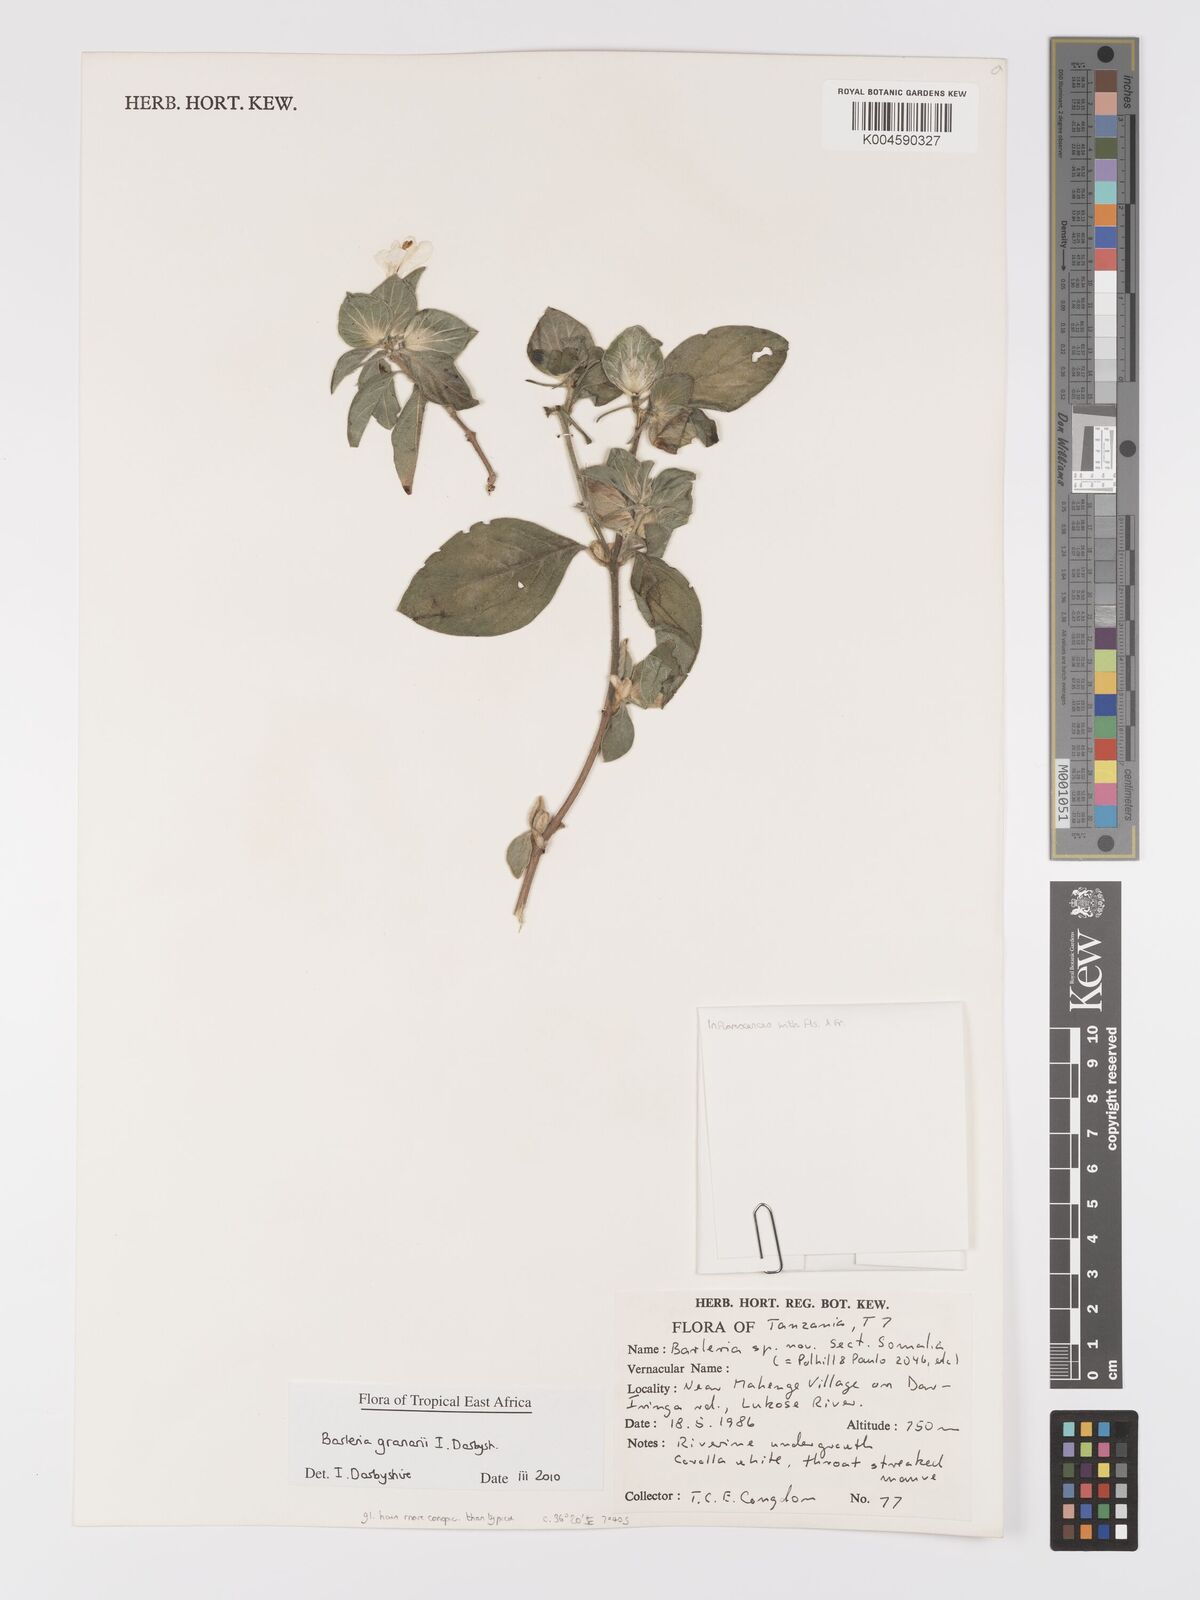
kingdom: Plantae
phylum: Tracheophyta
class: Magnoliopsida
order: Lamiales
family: Acanthaceae
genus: Barleria
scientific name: Barleria granarii
